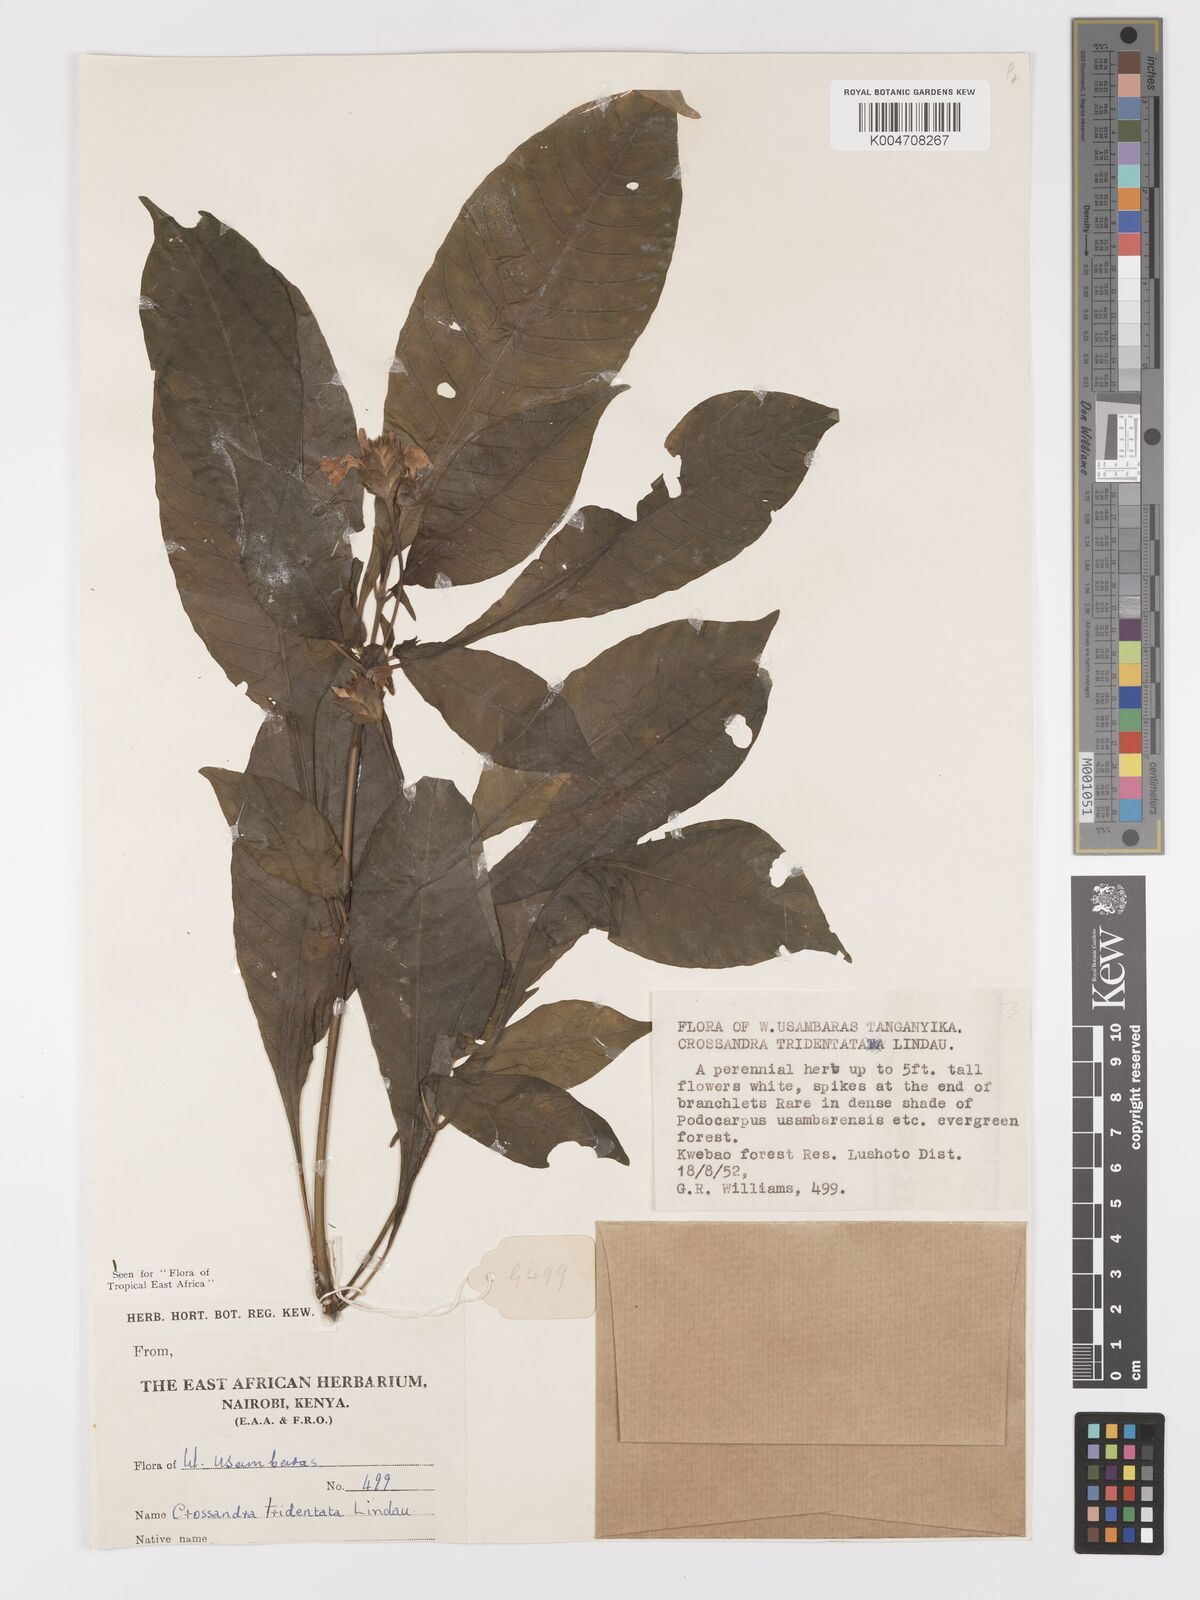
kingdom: Plantae
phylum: Tracheophyta
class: Magnoliopsida
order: Lamiales
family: Acanthaceae
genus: Crossandra
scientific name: Crossandra tridentata
